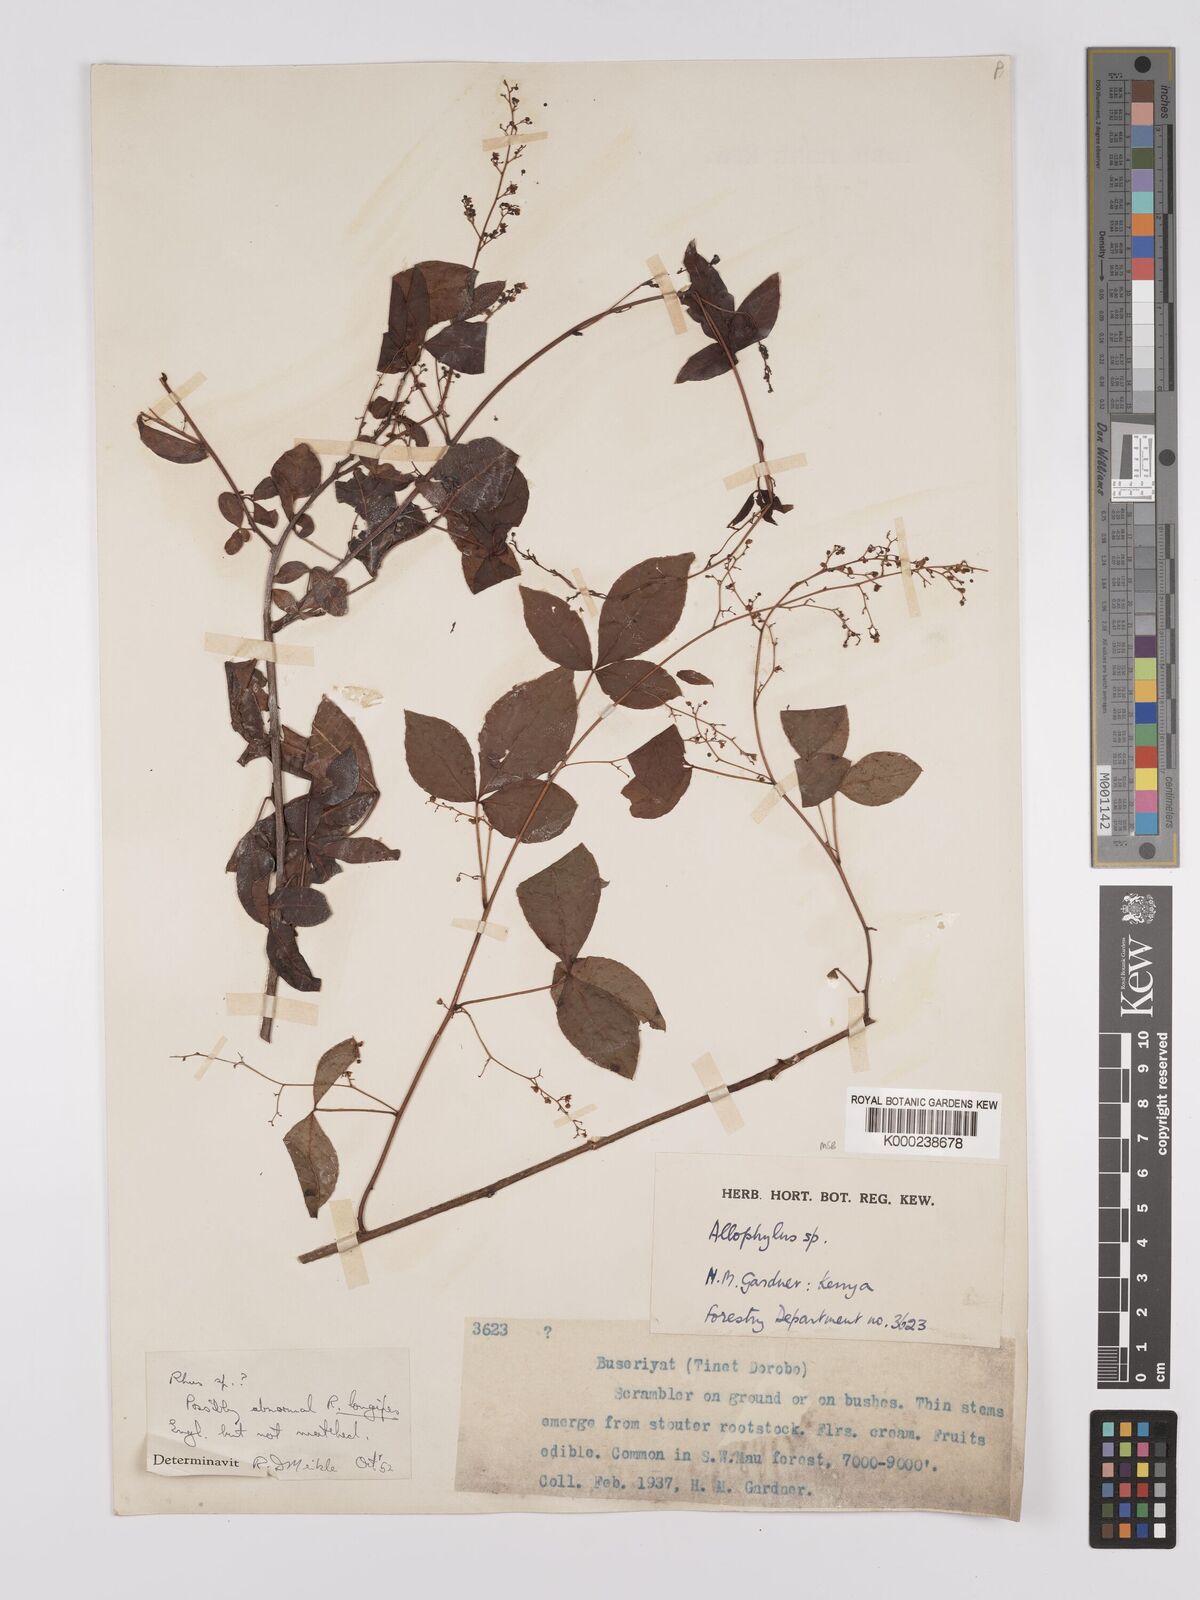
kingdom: Plantae
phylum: Tracheophyta
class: Magnoliopsida
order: Sapindales
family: Anacardiaceae
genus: Searsia
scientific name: Searsia longipes
